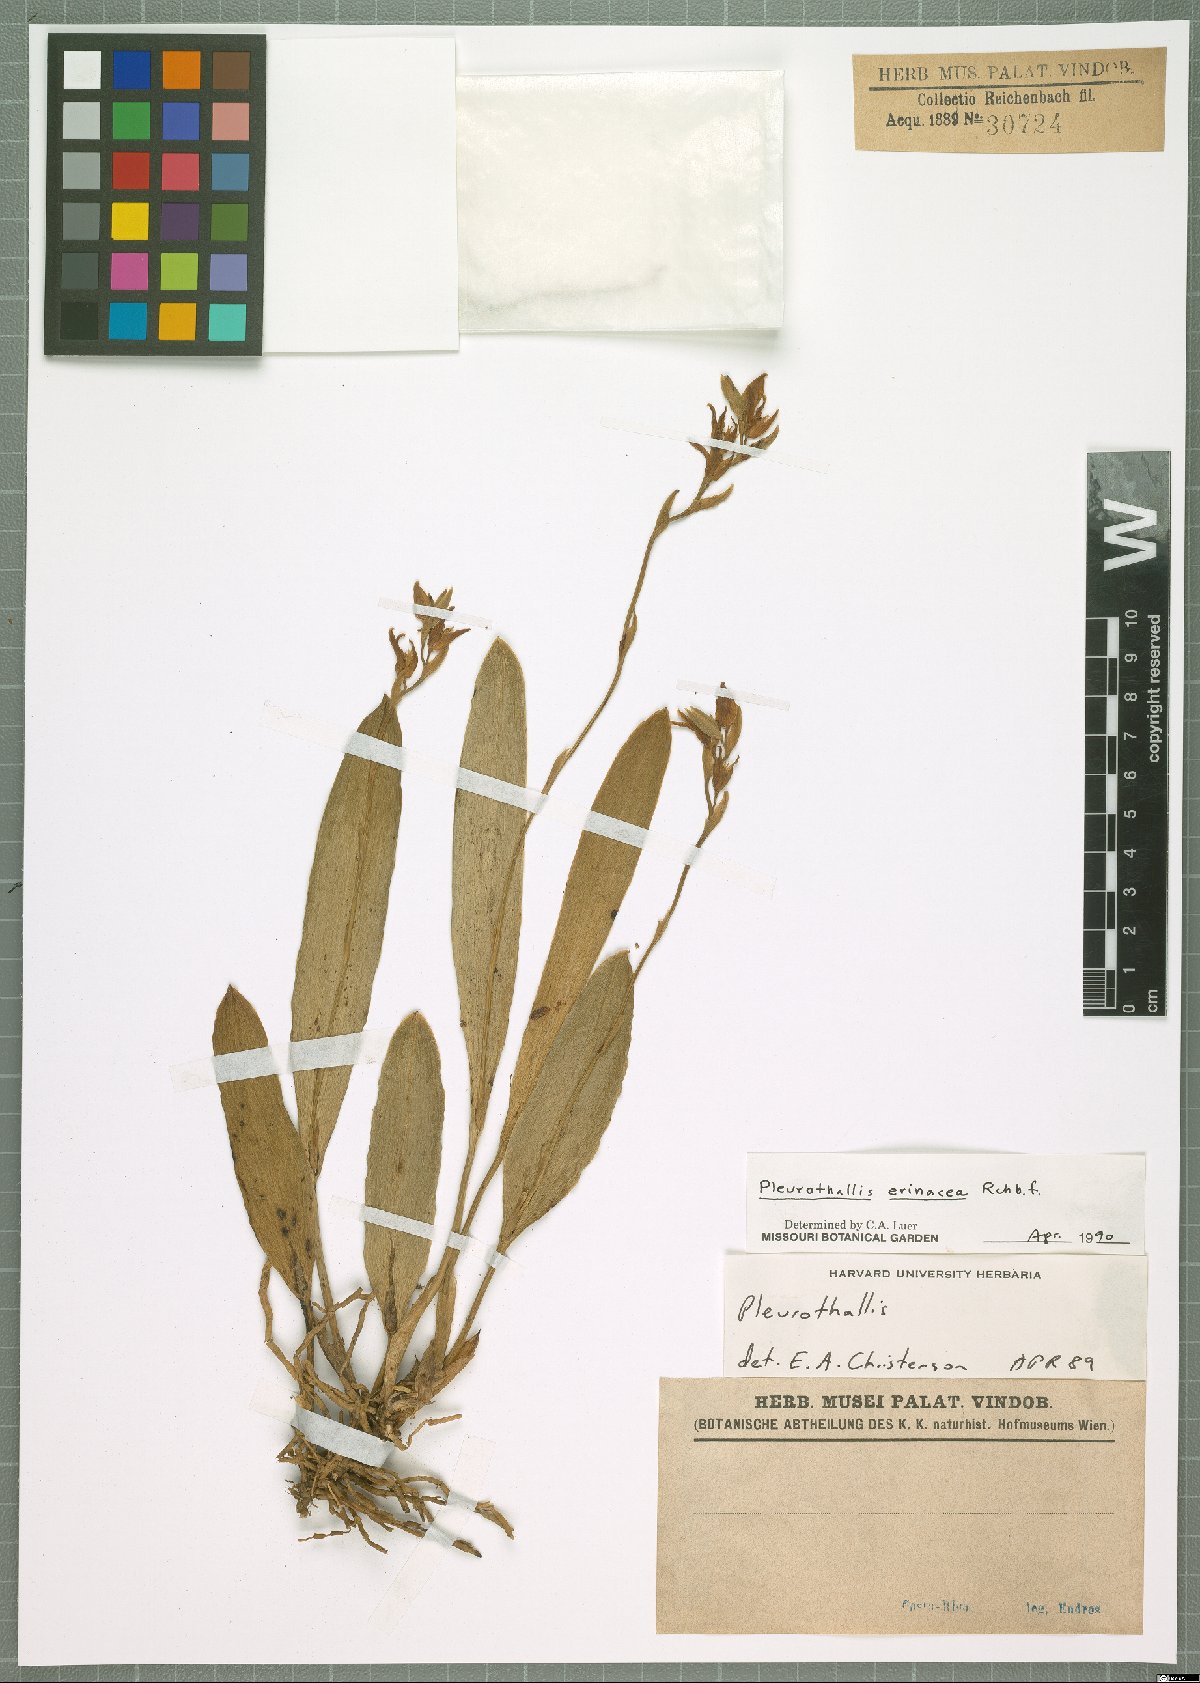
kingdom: Plantae
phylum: Tracheophyta
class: Liliopsida
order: Asparagales
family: Orchidaceae
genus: Acianthera
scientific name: Acianthera erinacea
